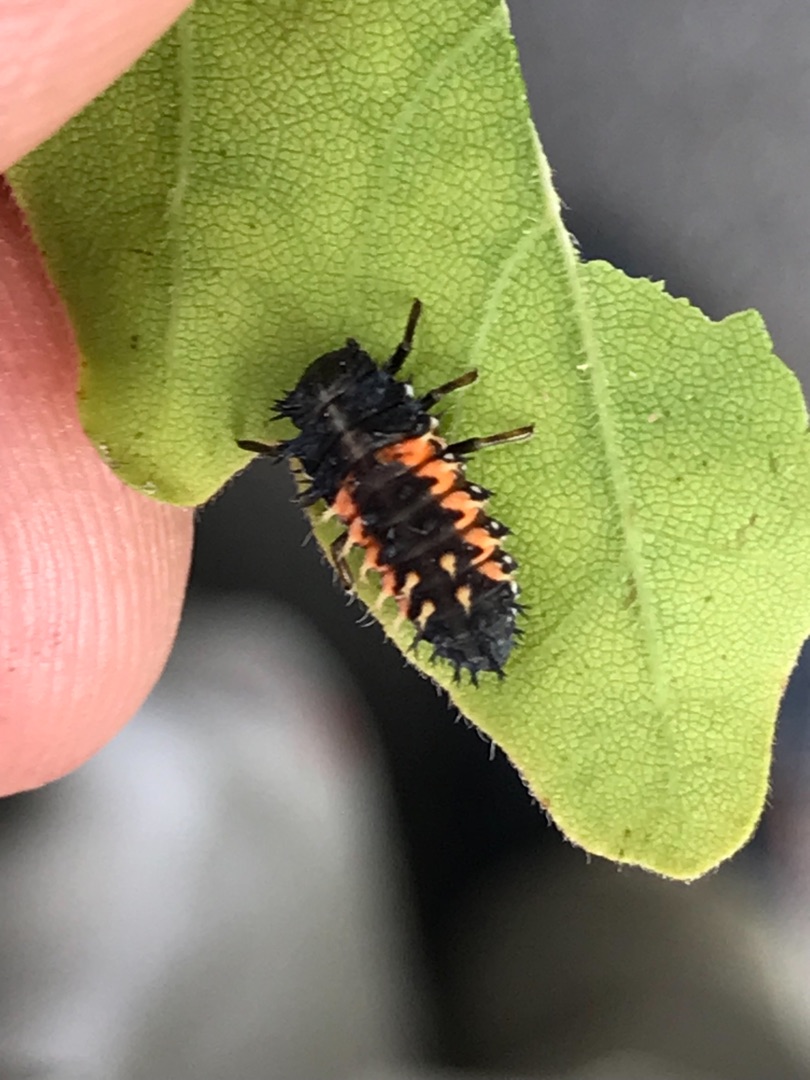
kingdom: Animalia
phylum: Arthropoda
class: Insecta
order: Coleoptera
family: Coccinellidae
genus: Harmonia
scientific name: Harmonia axyridis
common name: Harlekinmariehøne
